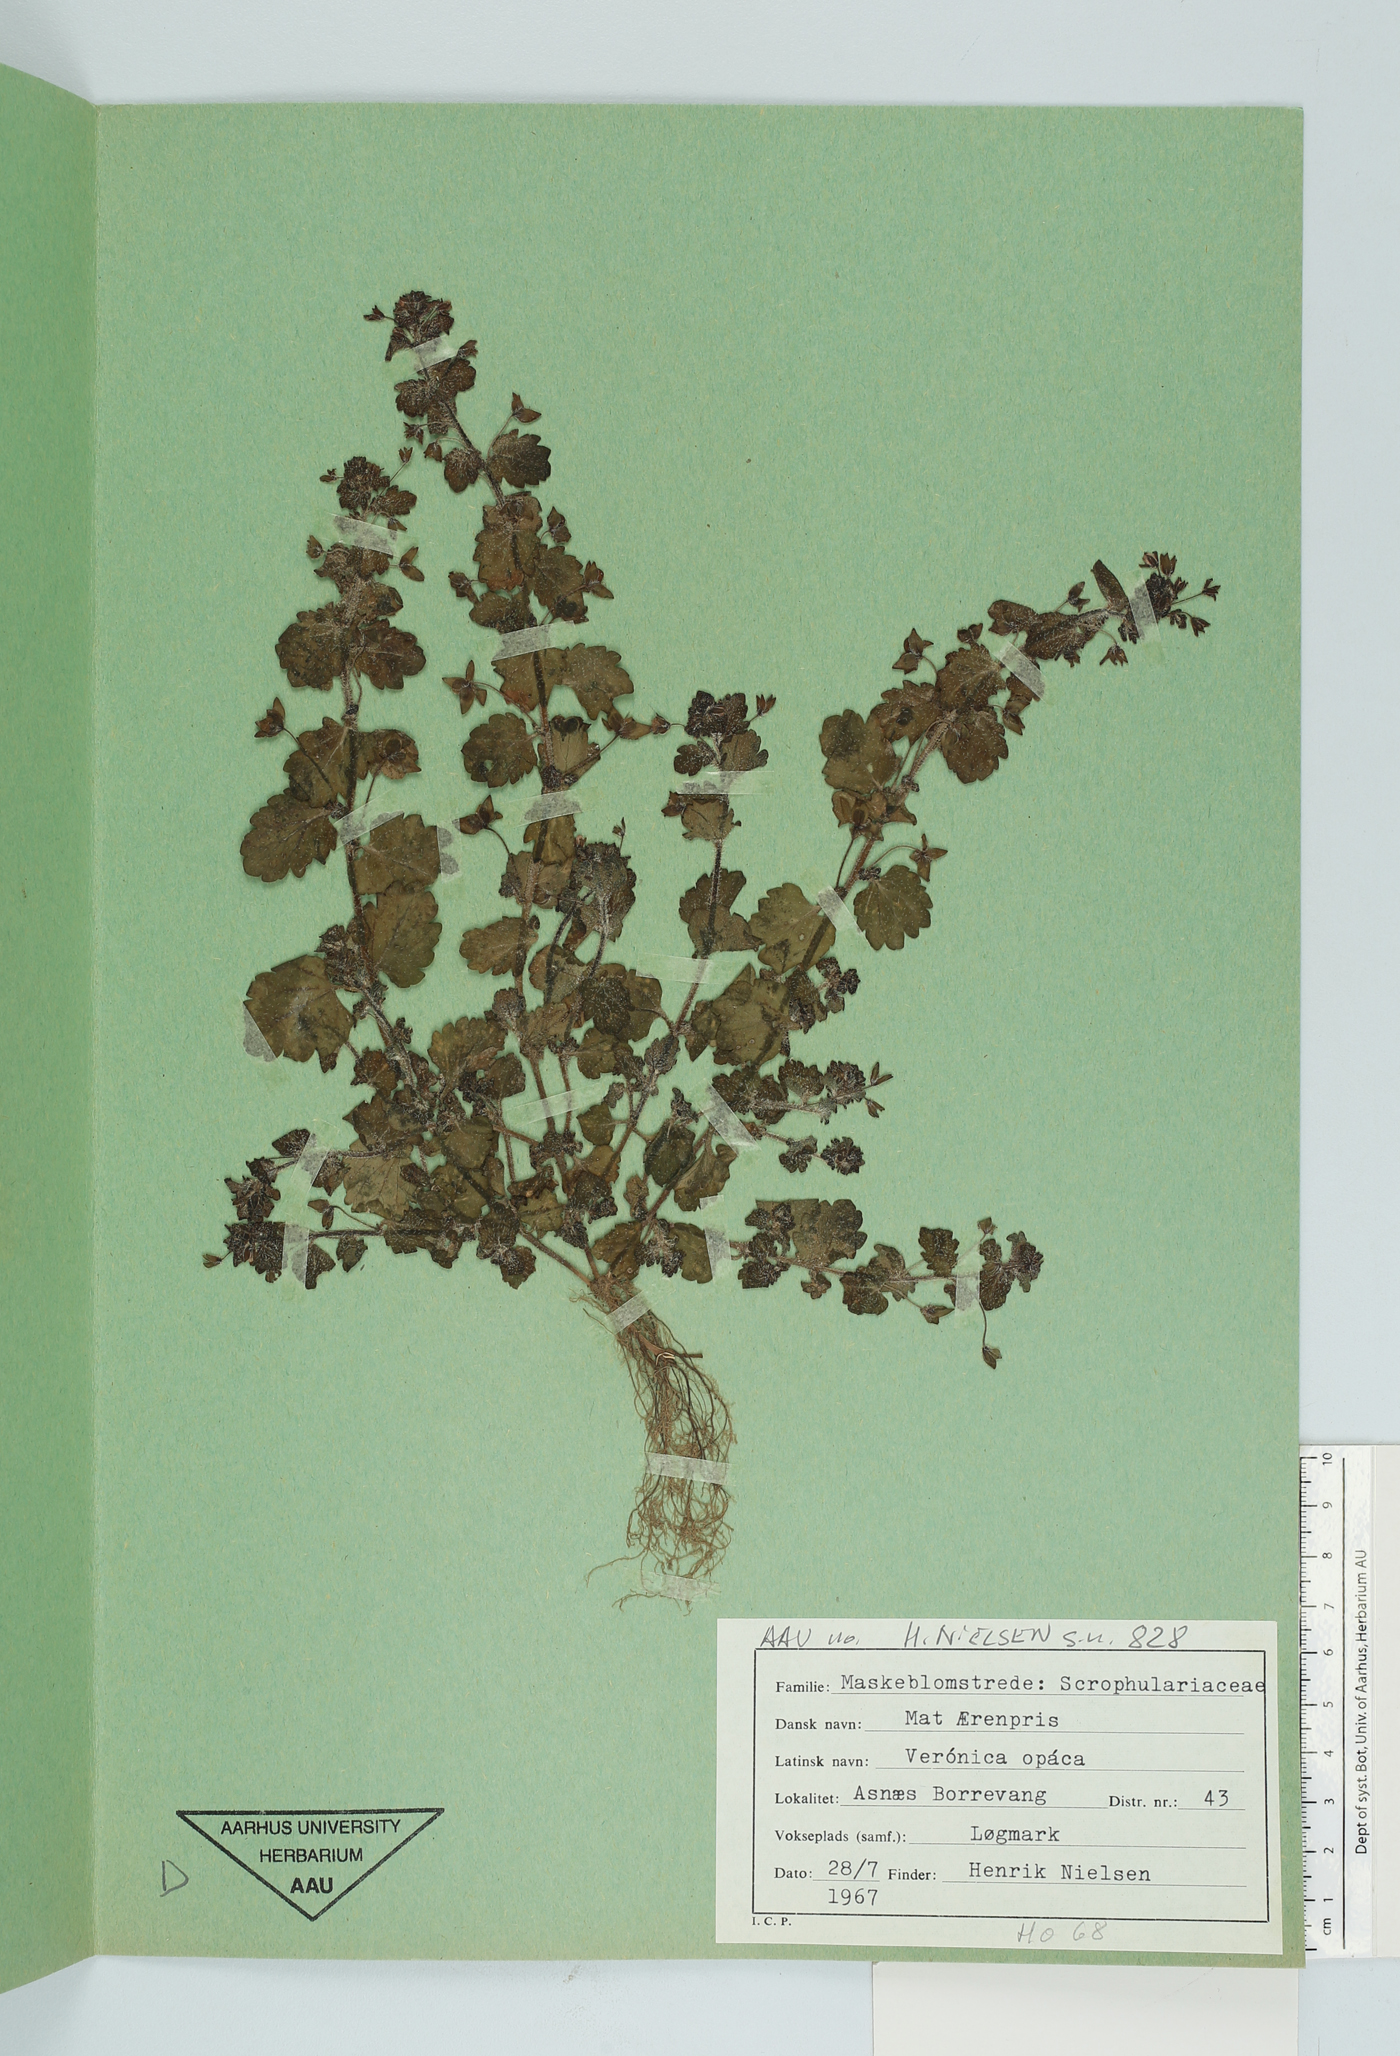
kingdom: Plantae
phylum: Tracheophyta
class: Magnoliopsida
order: Lamiales
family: Plantaginaceae
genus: Veronica
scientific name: Veronica opaca
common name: Dark speedwell
